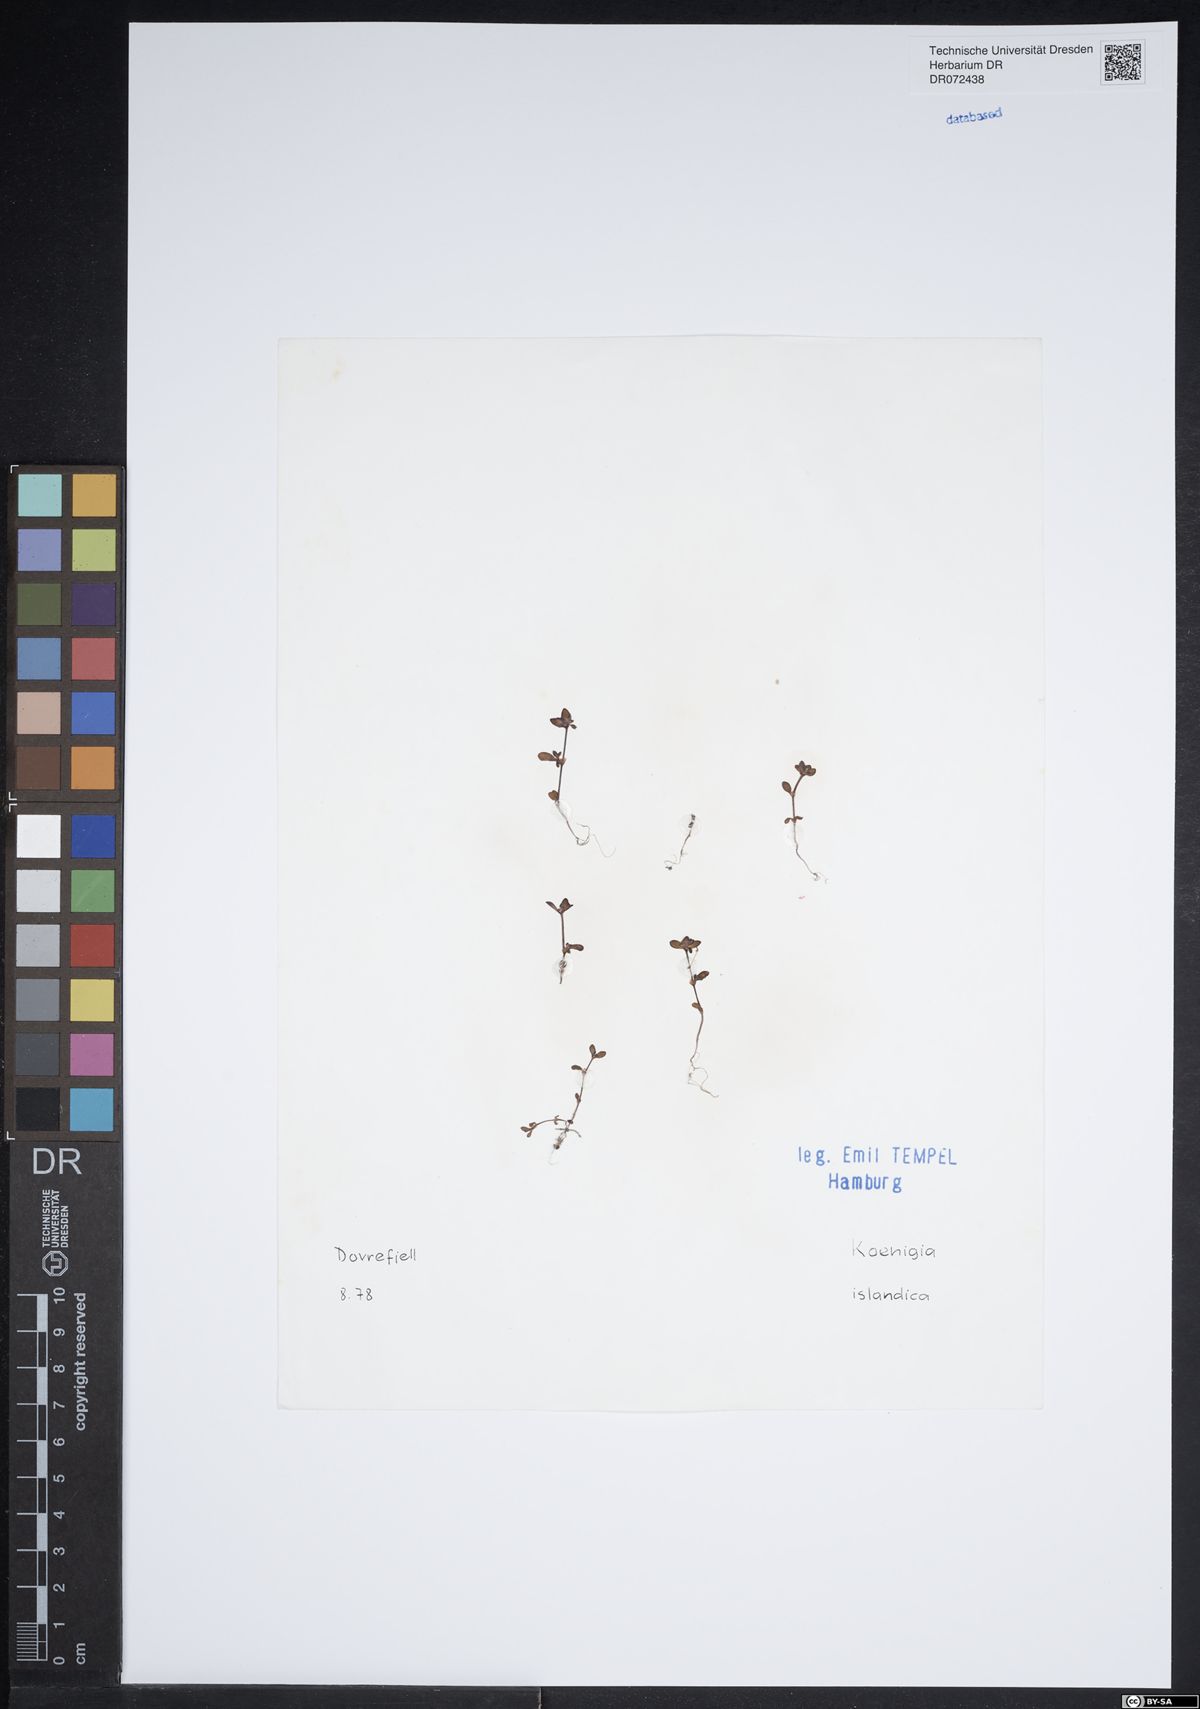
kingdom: Plantae
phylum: Tracheophyta
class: Magnoliopsida
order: Caryophyllales
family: Polygonaceae
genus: Koenigia
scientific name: Koenigia islandica
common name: Iceland-purslane
